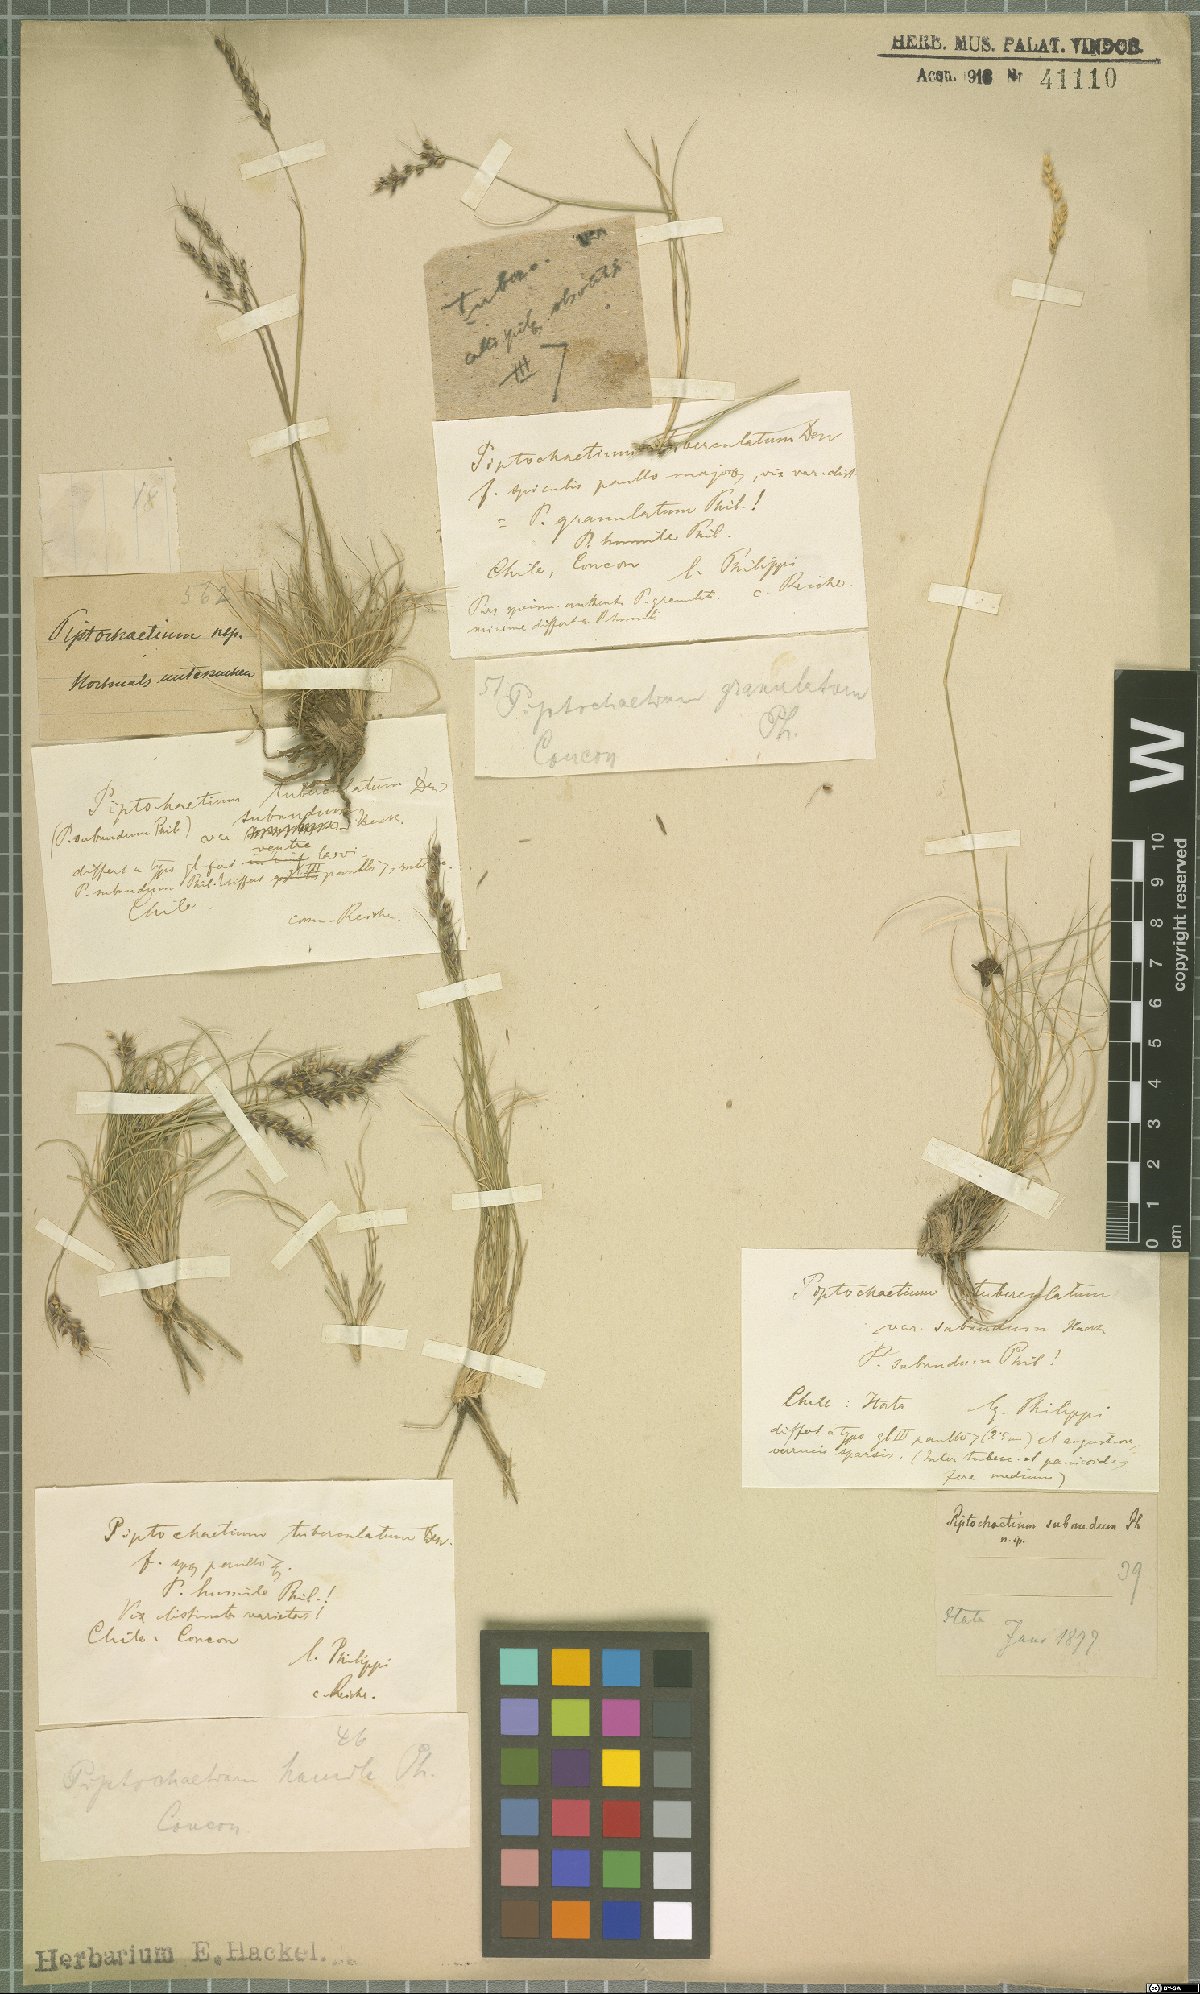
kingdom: Plantae
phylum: Tracheophyta
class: Liliopsida
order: Poales
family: Poaceae
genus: Piptochaetium
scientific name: Piptochaetium panicoides
